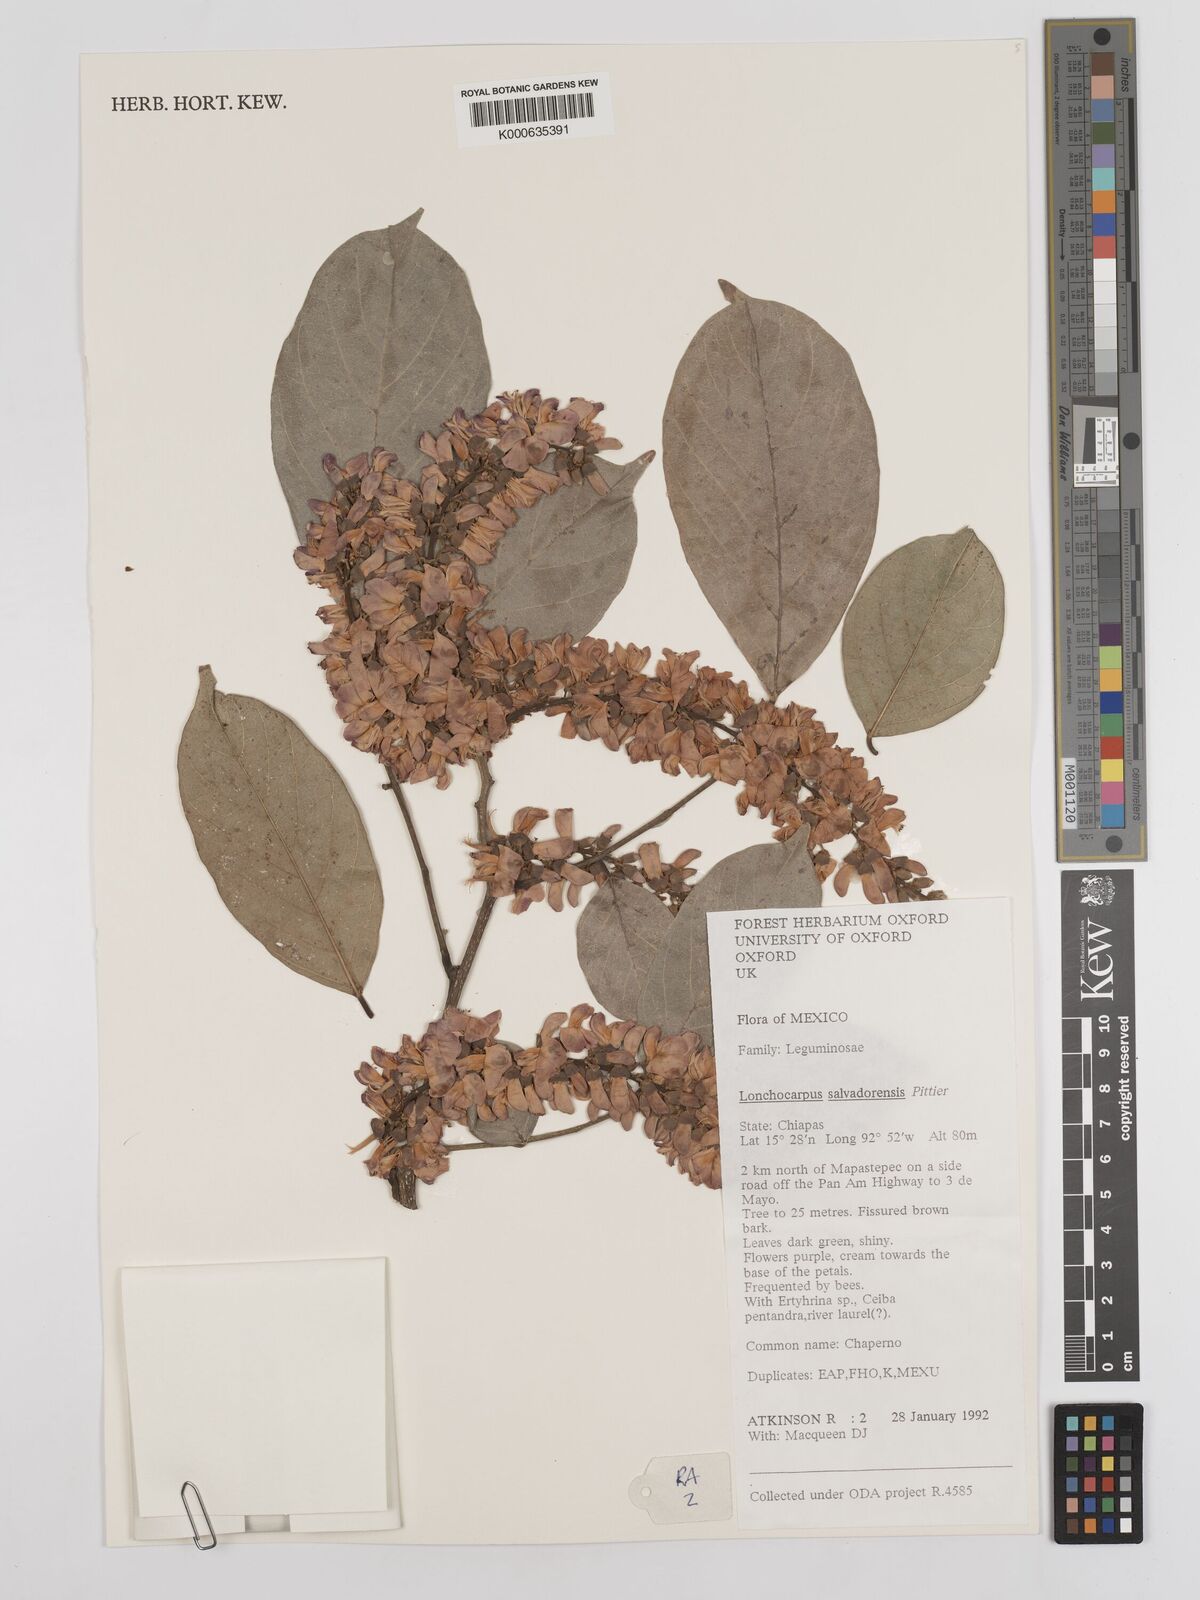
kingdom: Plantae
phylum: Tracheophyta
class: Magnoliopsida
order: Fabales
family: Fabaceae
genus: Lonchocarpus
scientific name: Lonchocarpus salvadorensis
